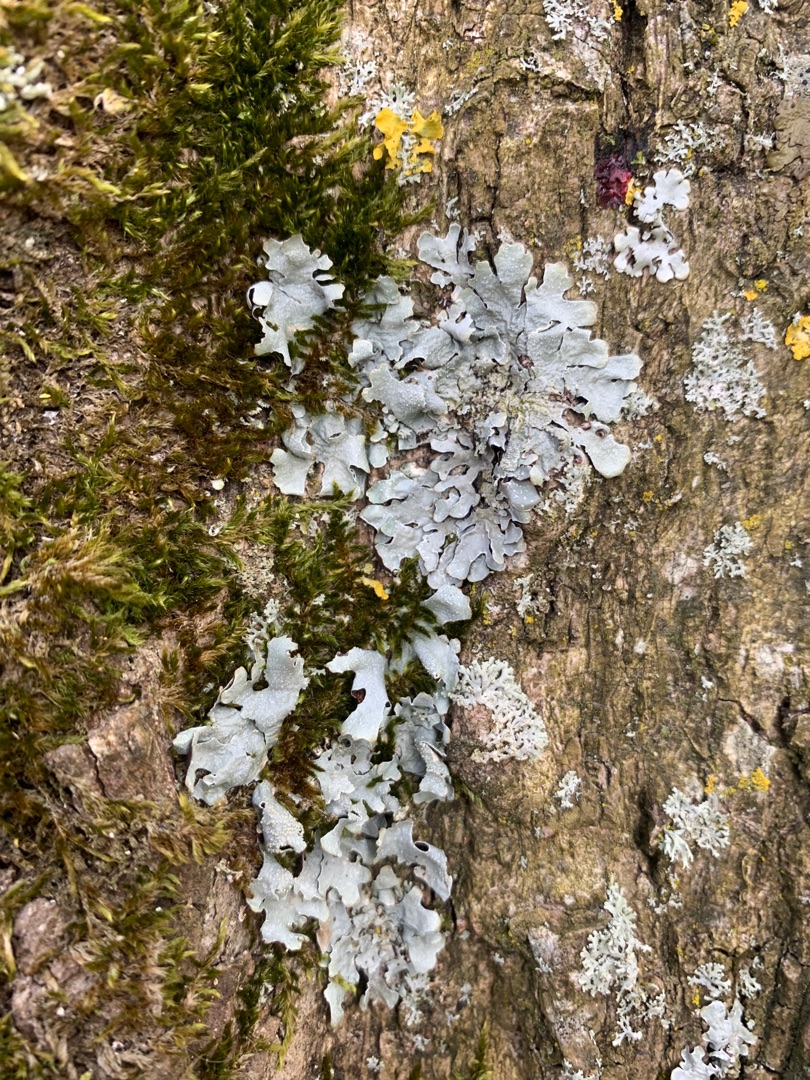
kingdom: Fungi
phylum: Ascomycota
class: Lecanoromycetes
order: Lecanorales
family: Parmeliaceae
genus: Parmelia
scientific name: Parmelia
